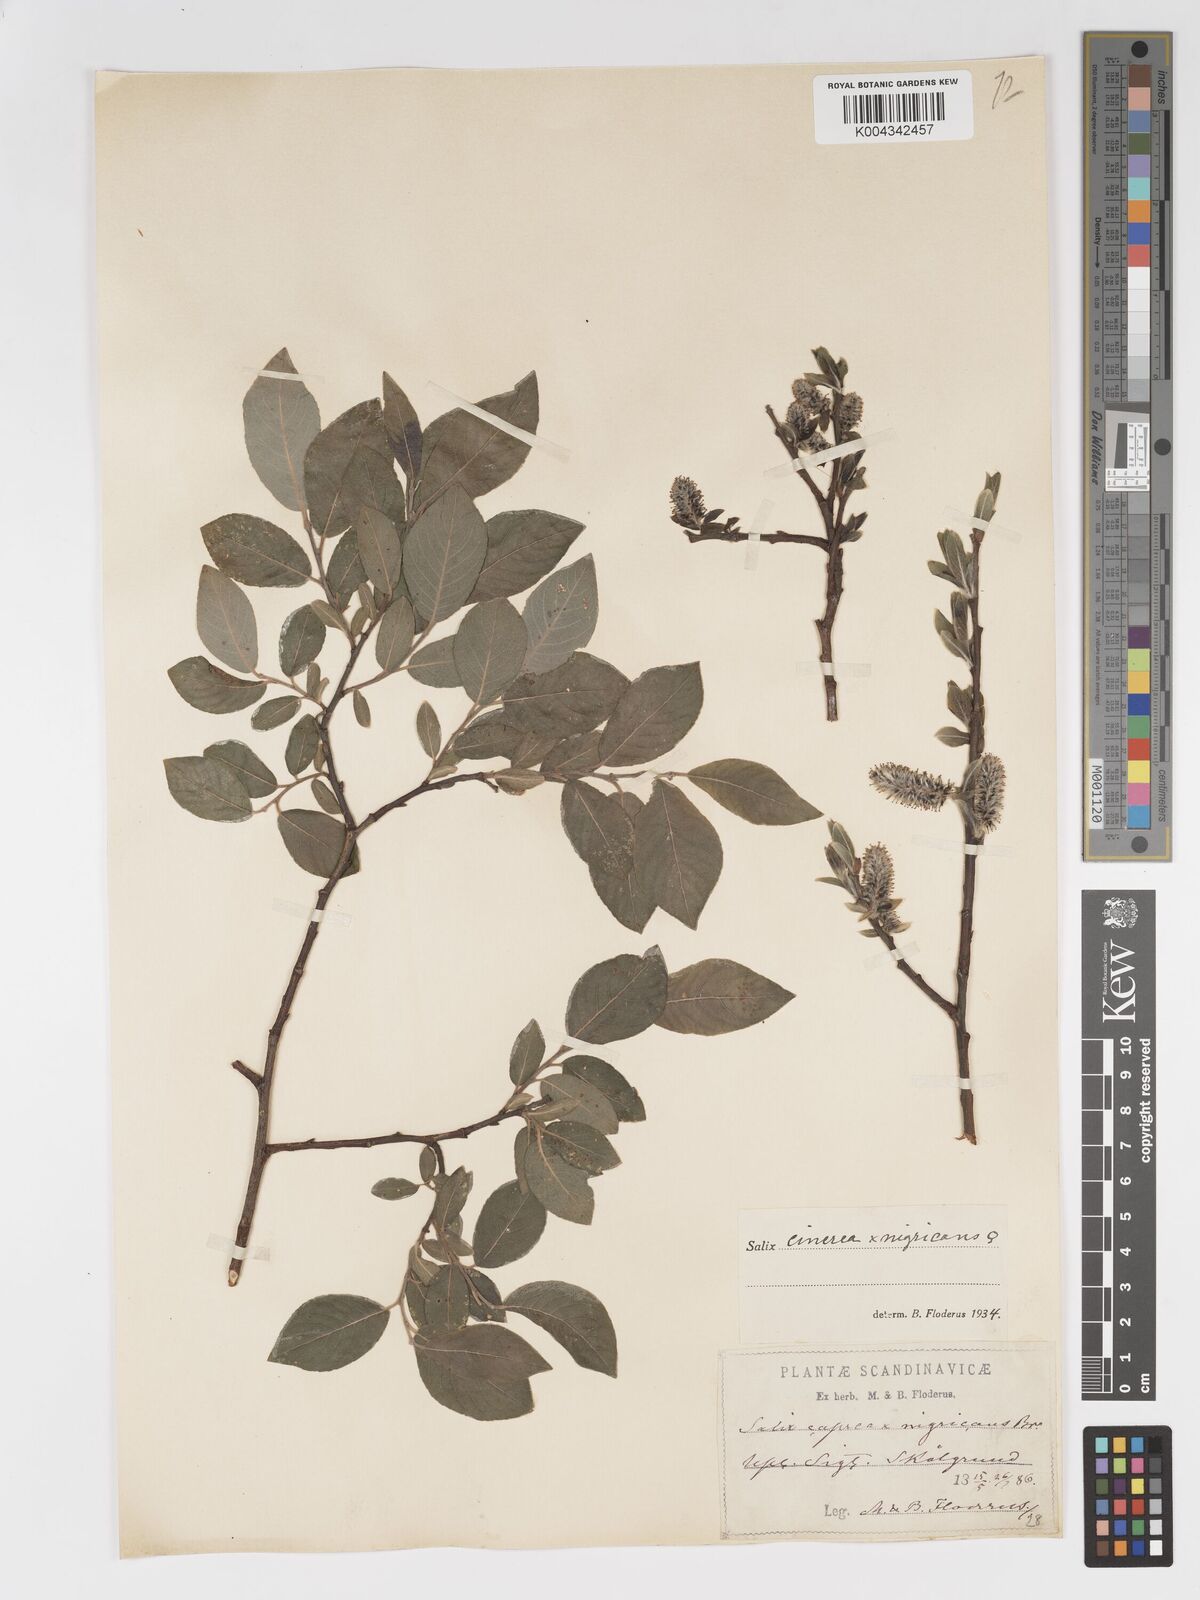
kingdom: Plantae
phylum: Tracheophyta
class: Magnoliopsida
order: Malpighiales
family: Salicaceae
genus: Salix
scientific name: Salix
